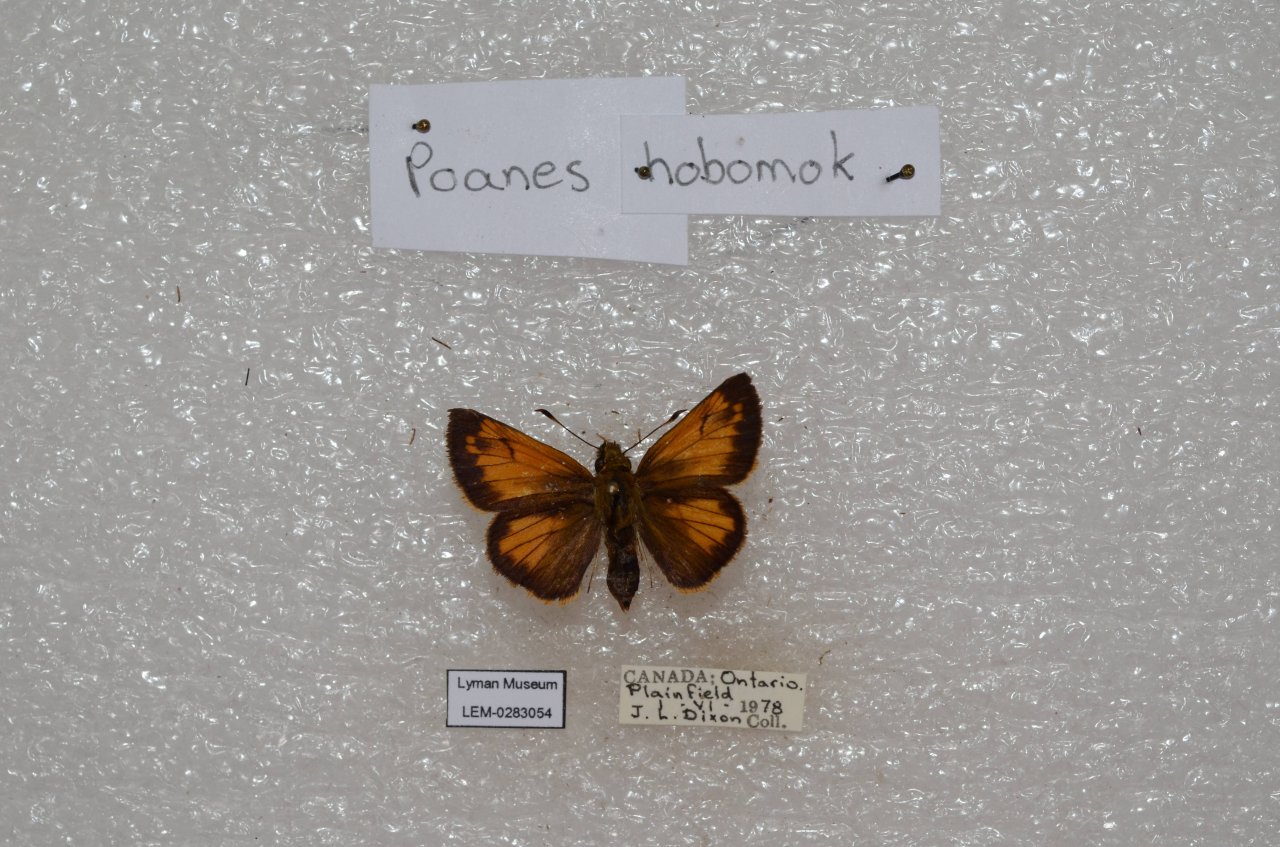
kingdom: Animalia
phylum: Arthropoda
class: Insecta
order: Lepidoptera
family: Hesperiidae
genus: Lon
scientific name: Lon hobomok
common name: Hobomok Skipper
